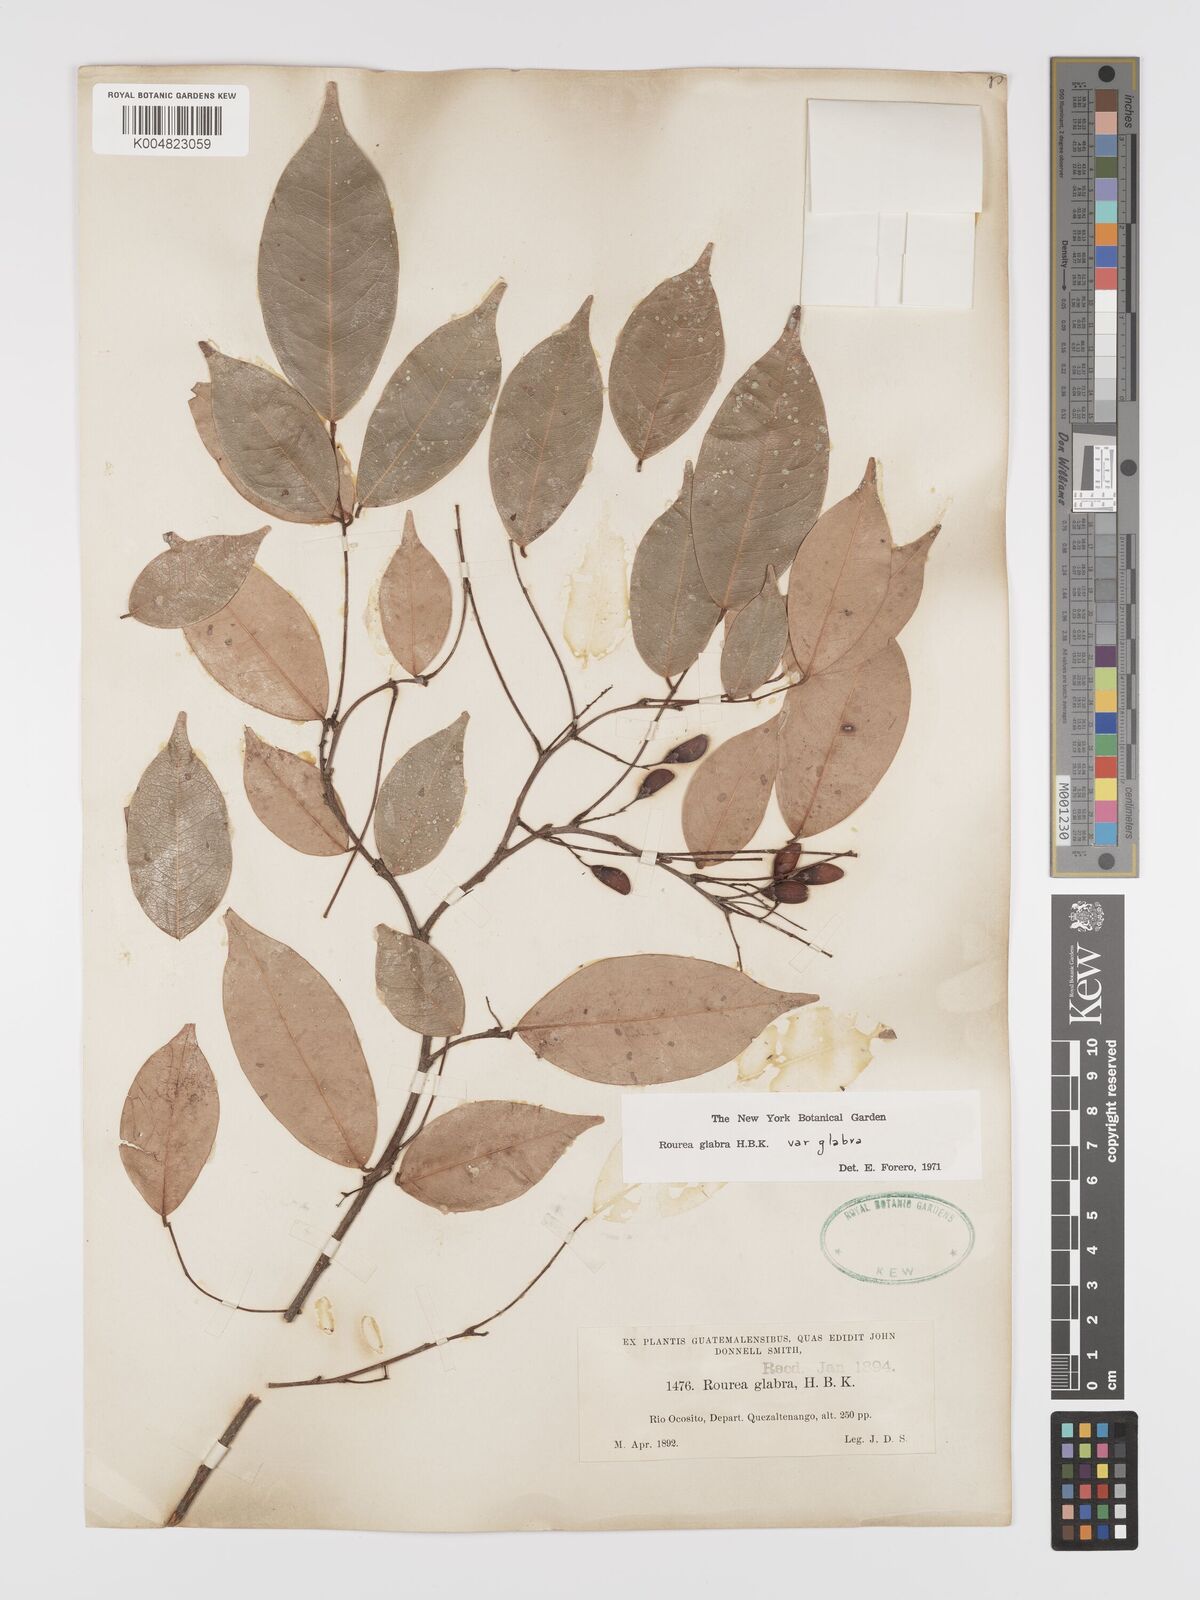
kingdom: Plantae
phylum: Tracheophyta
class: Magnoliopsida
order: Oxalidales
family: Connaraceae
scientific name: Connaraceae
